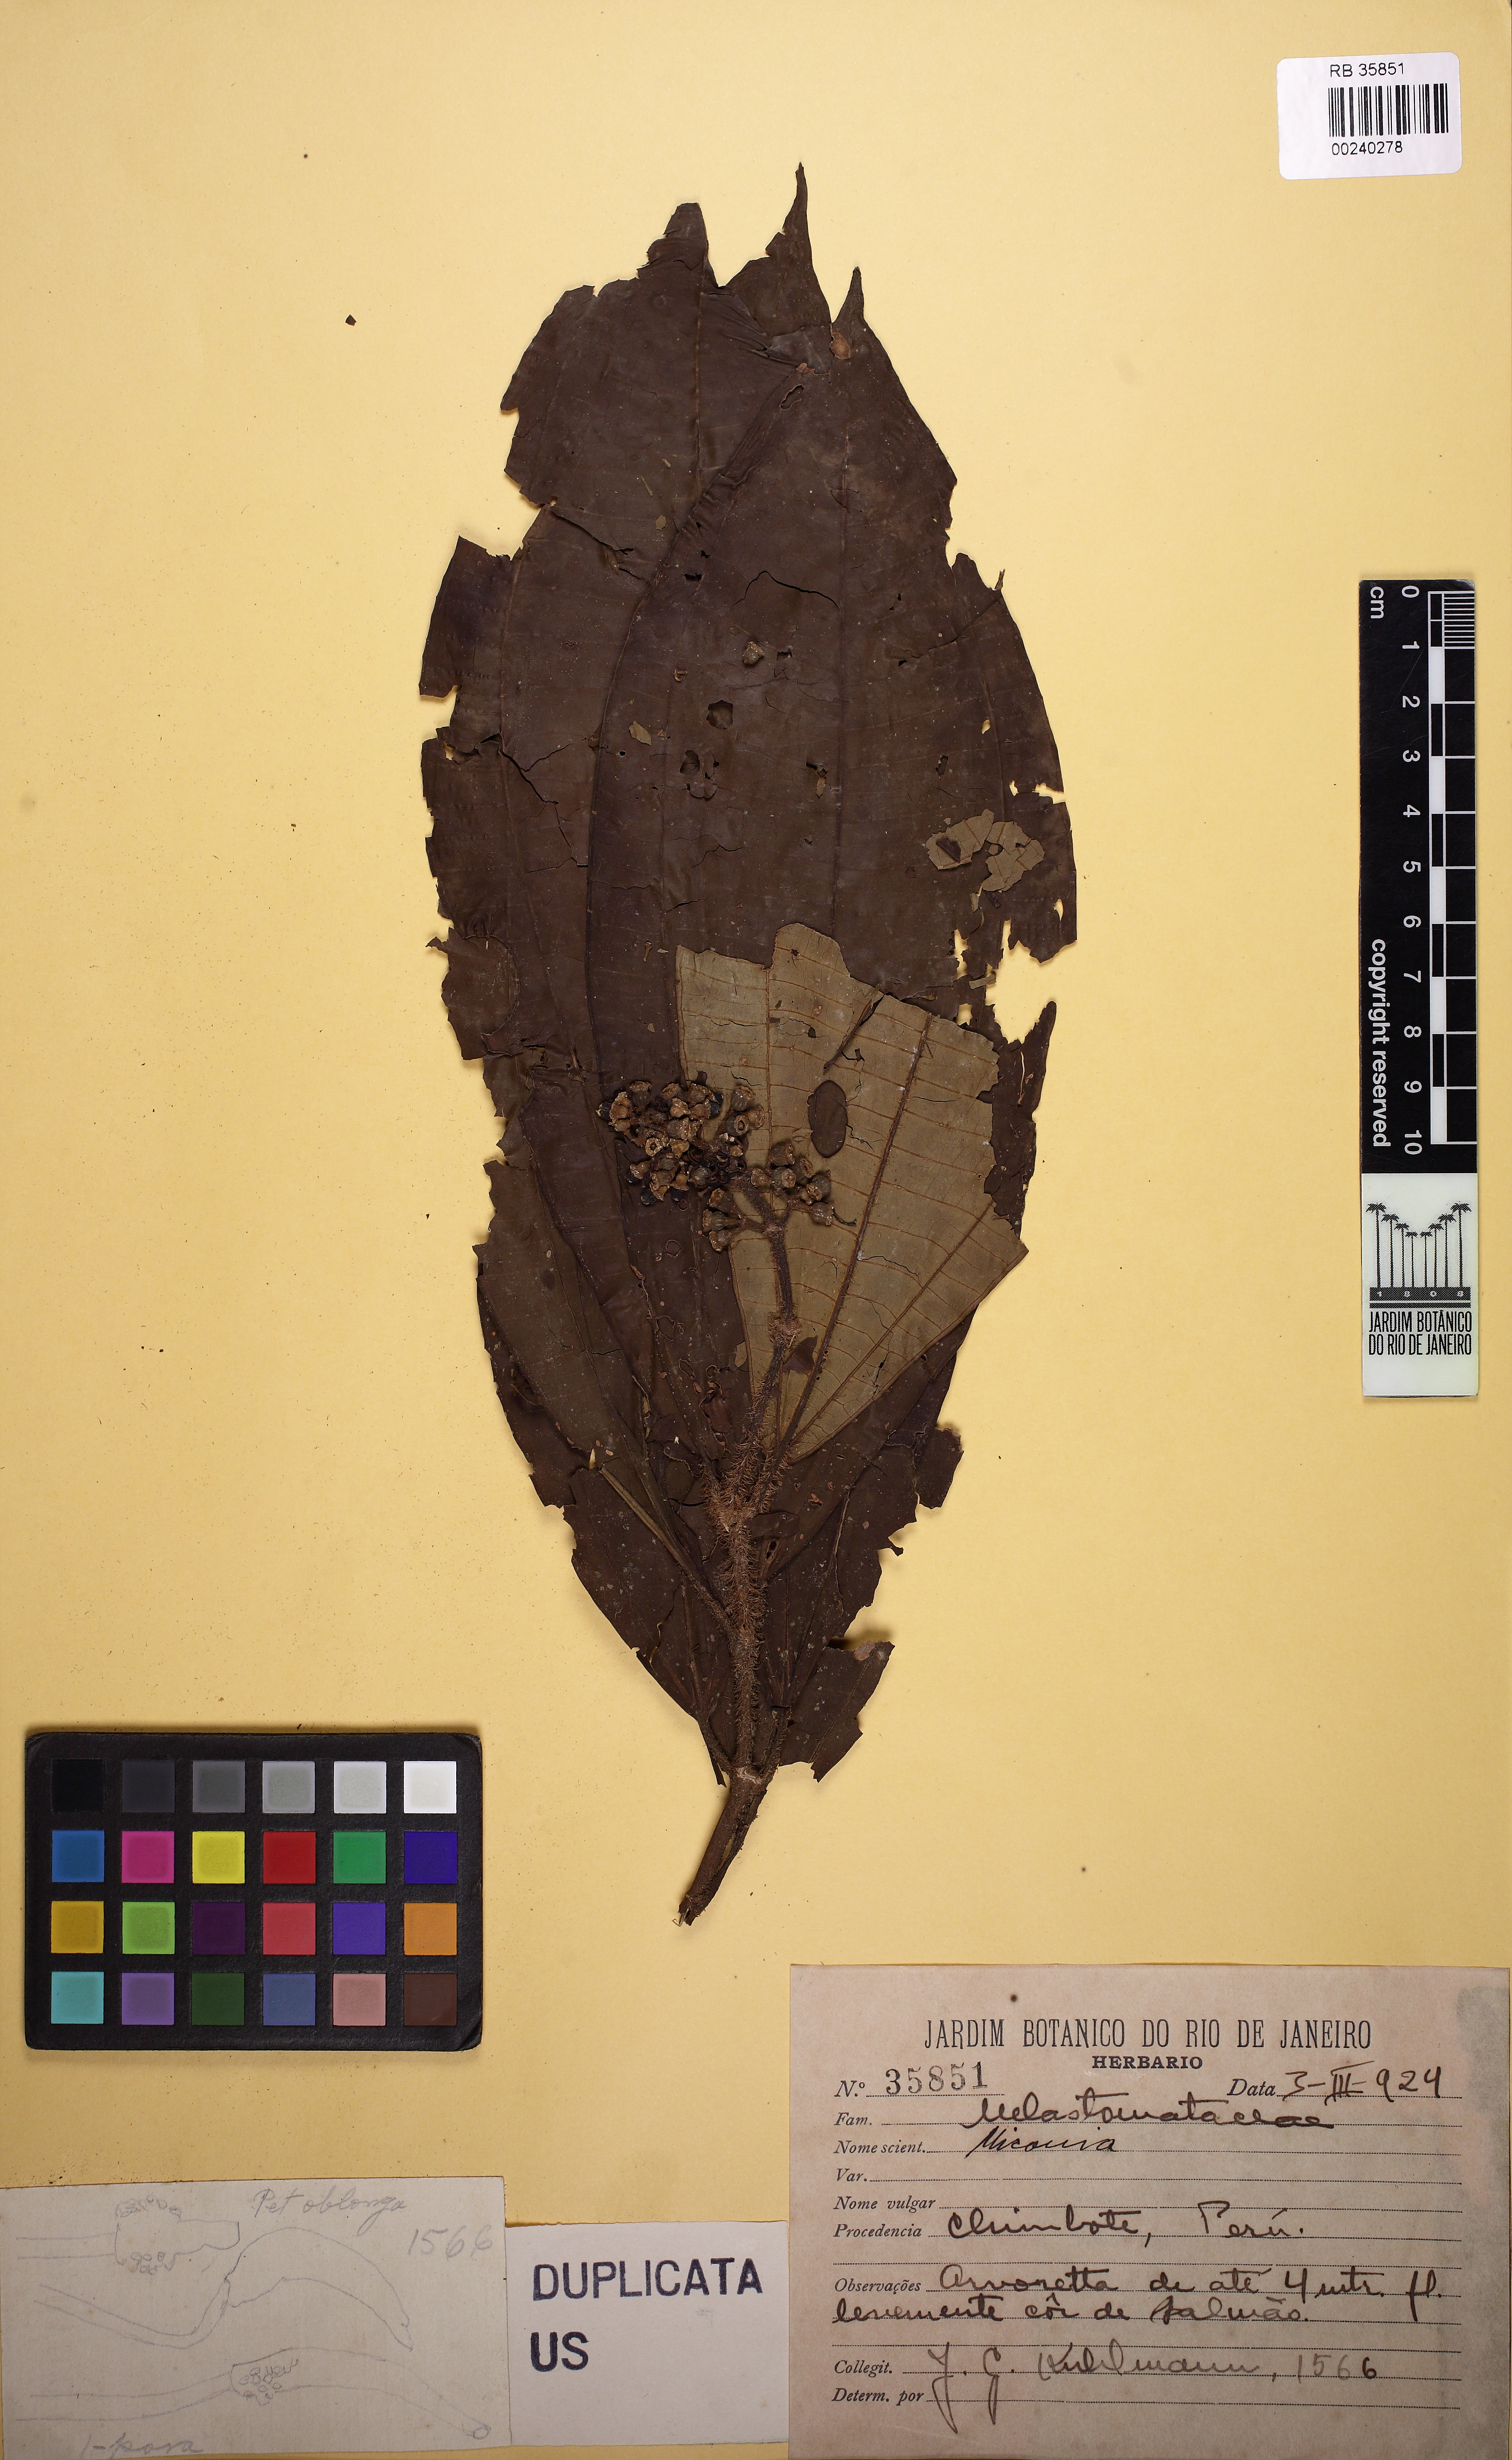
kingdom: Plantae
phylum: Tracheophyta
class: Magnoliopsida
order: Myrtales
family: Melastomataceae
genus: Miconia
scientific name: Miconia
